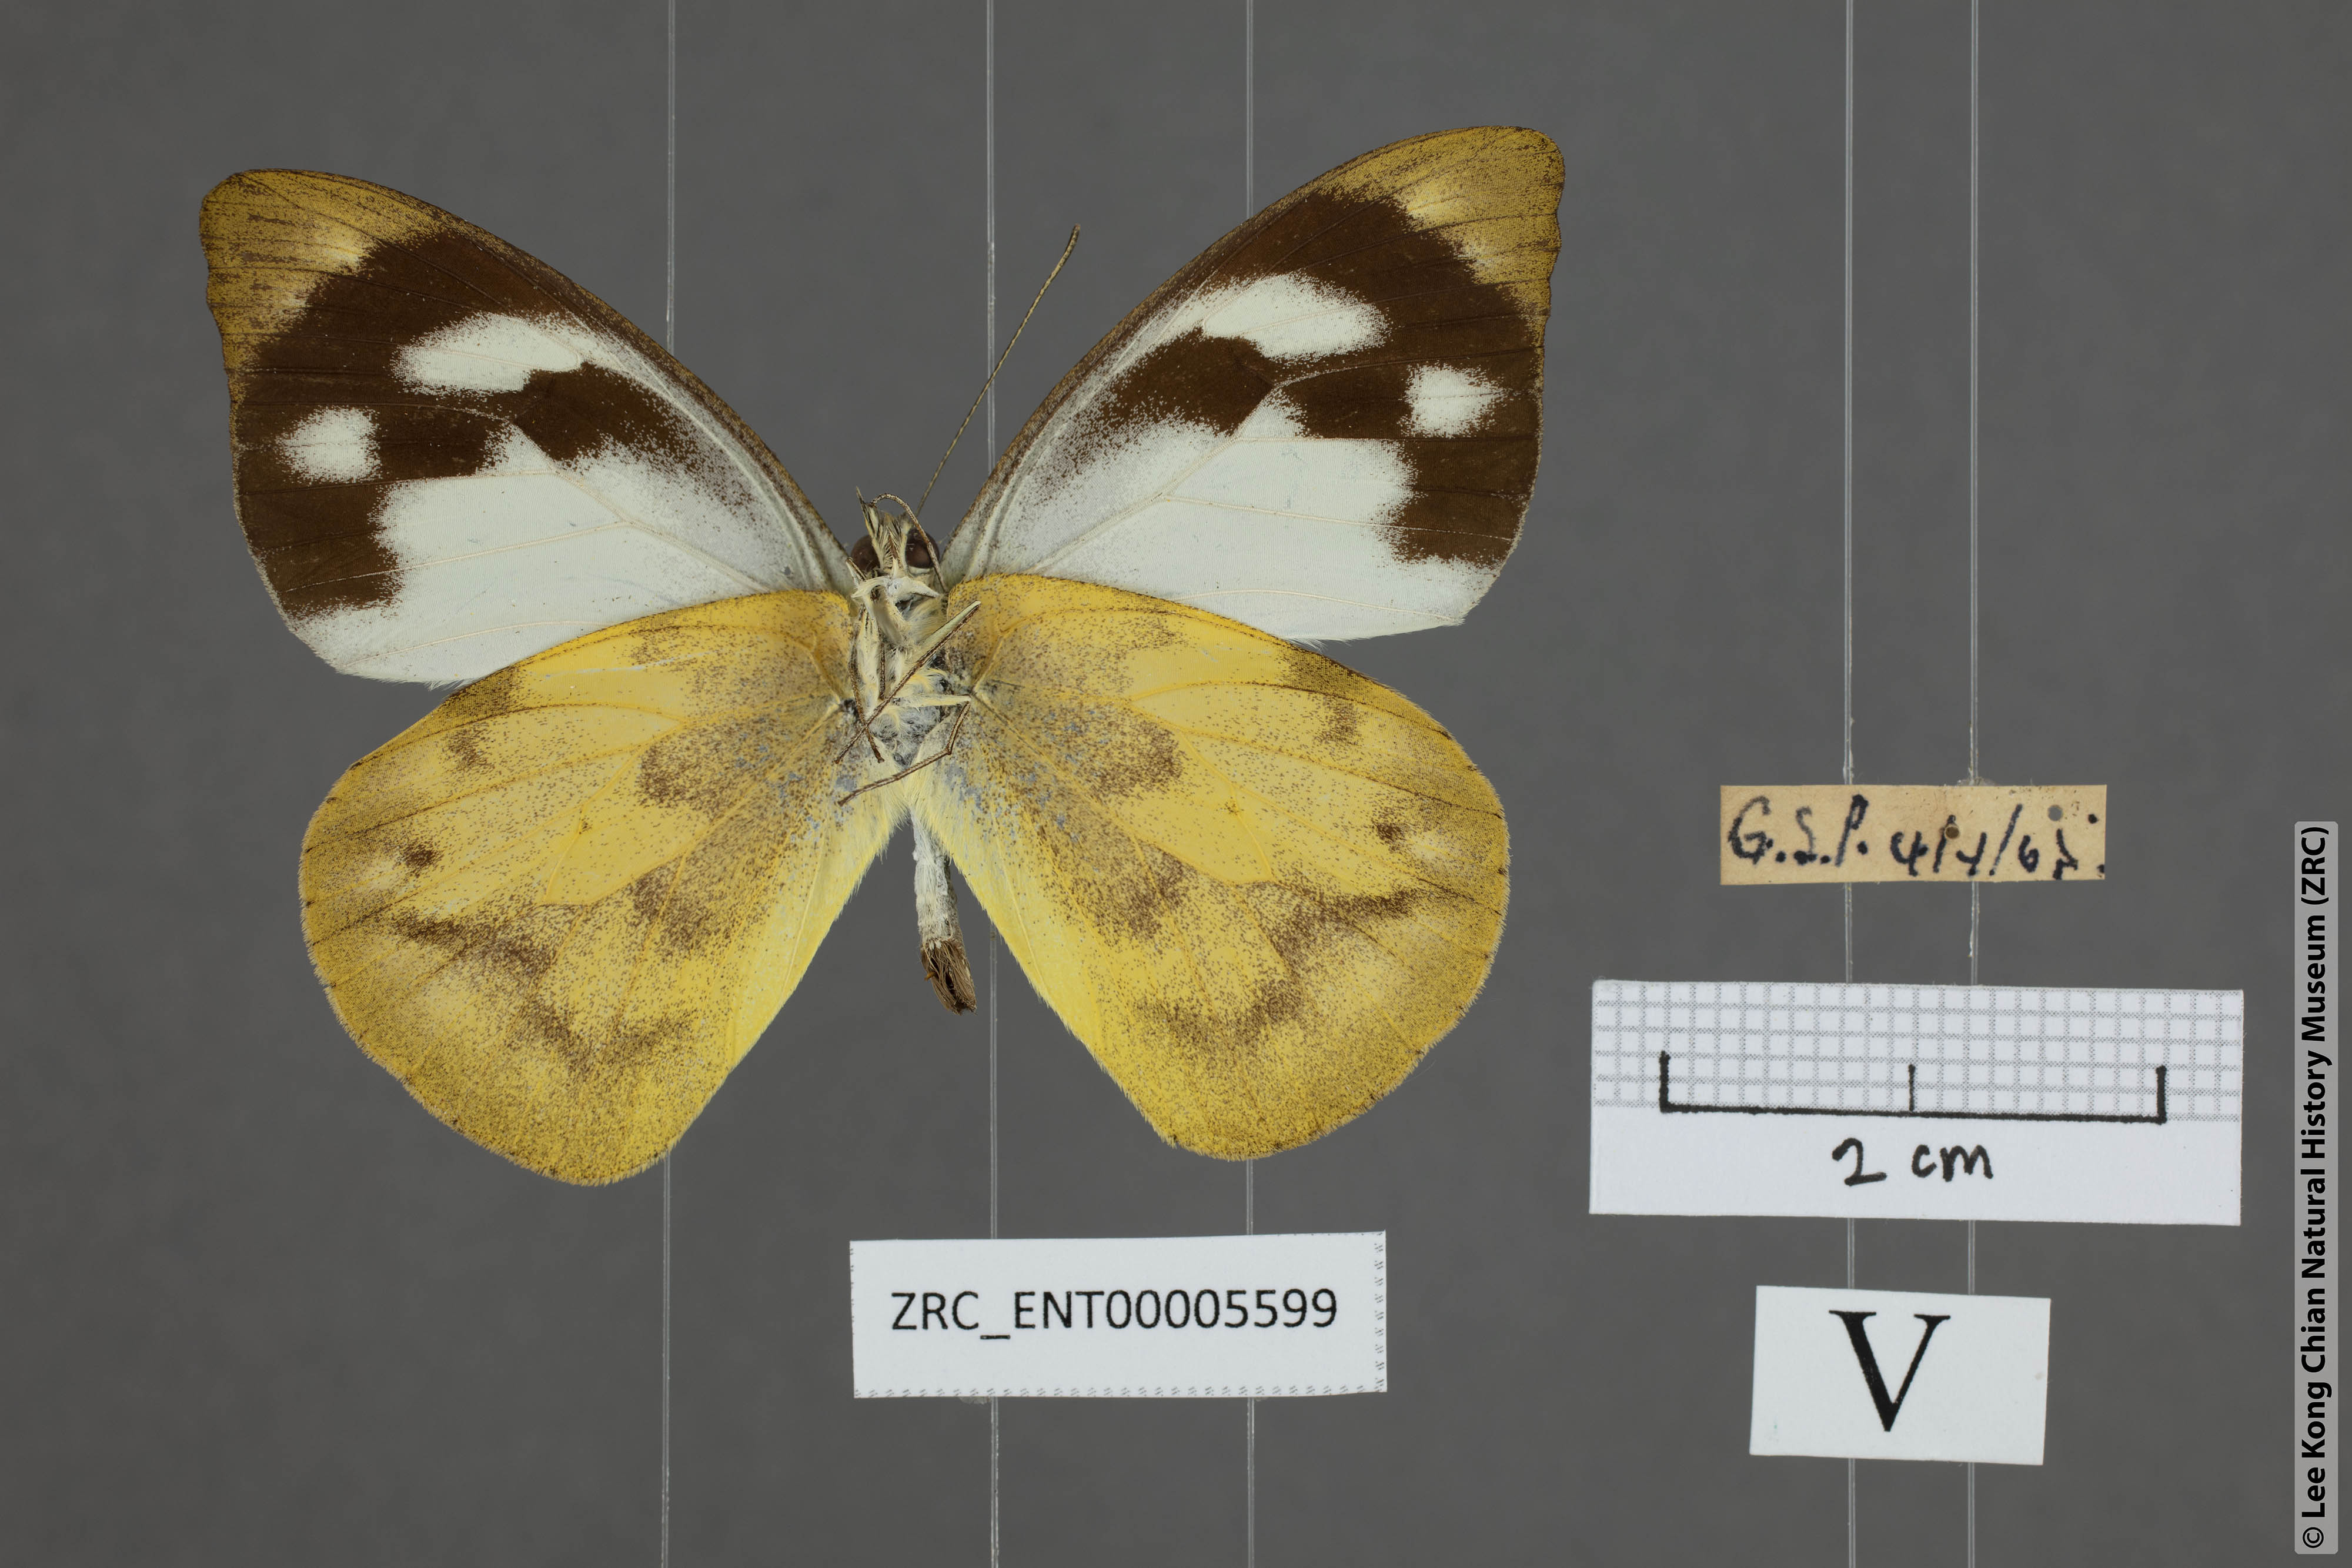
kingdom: Animalia
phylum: Arthropoda
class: Insecta
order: Lepidoptera
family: Pieridae
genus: Appias
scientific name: Appias pandione
